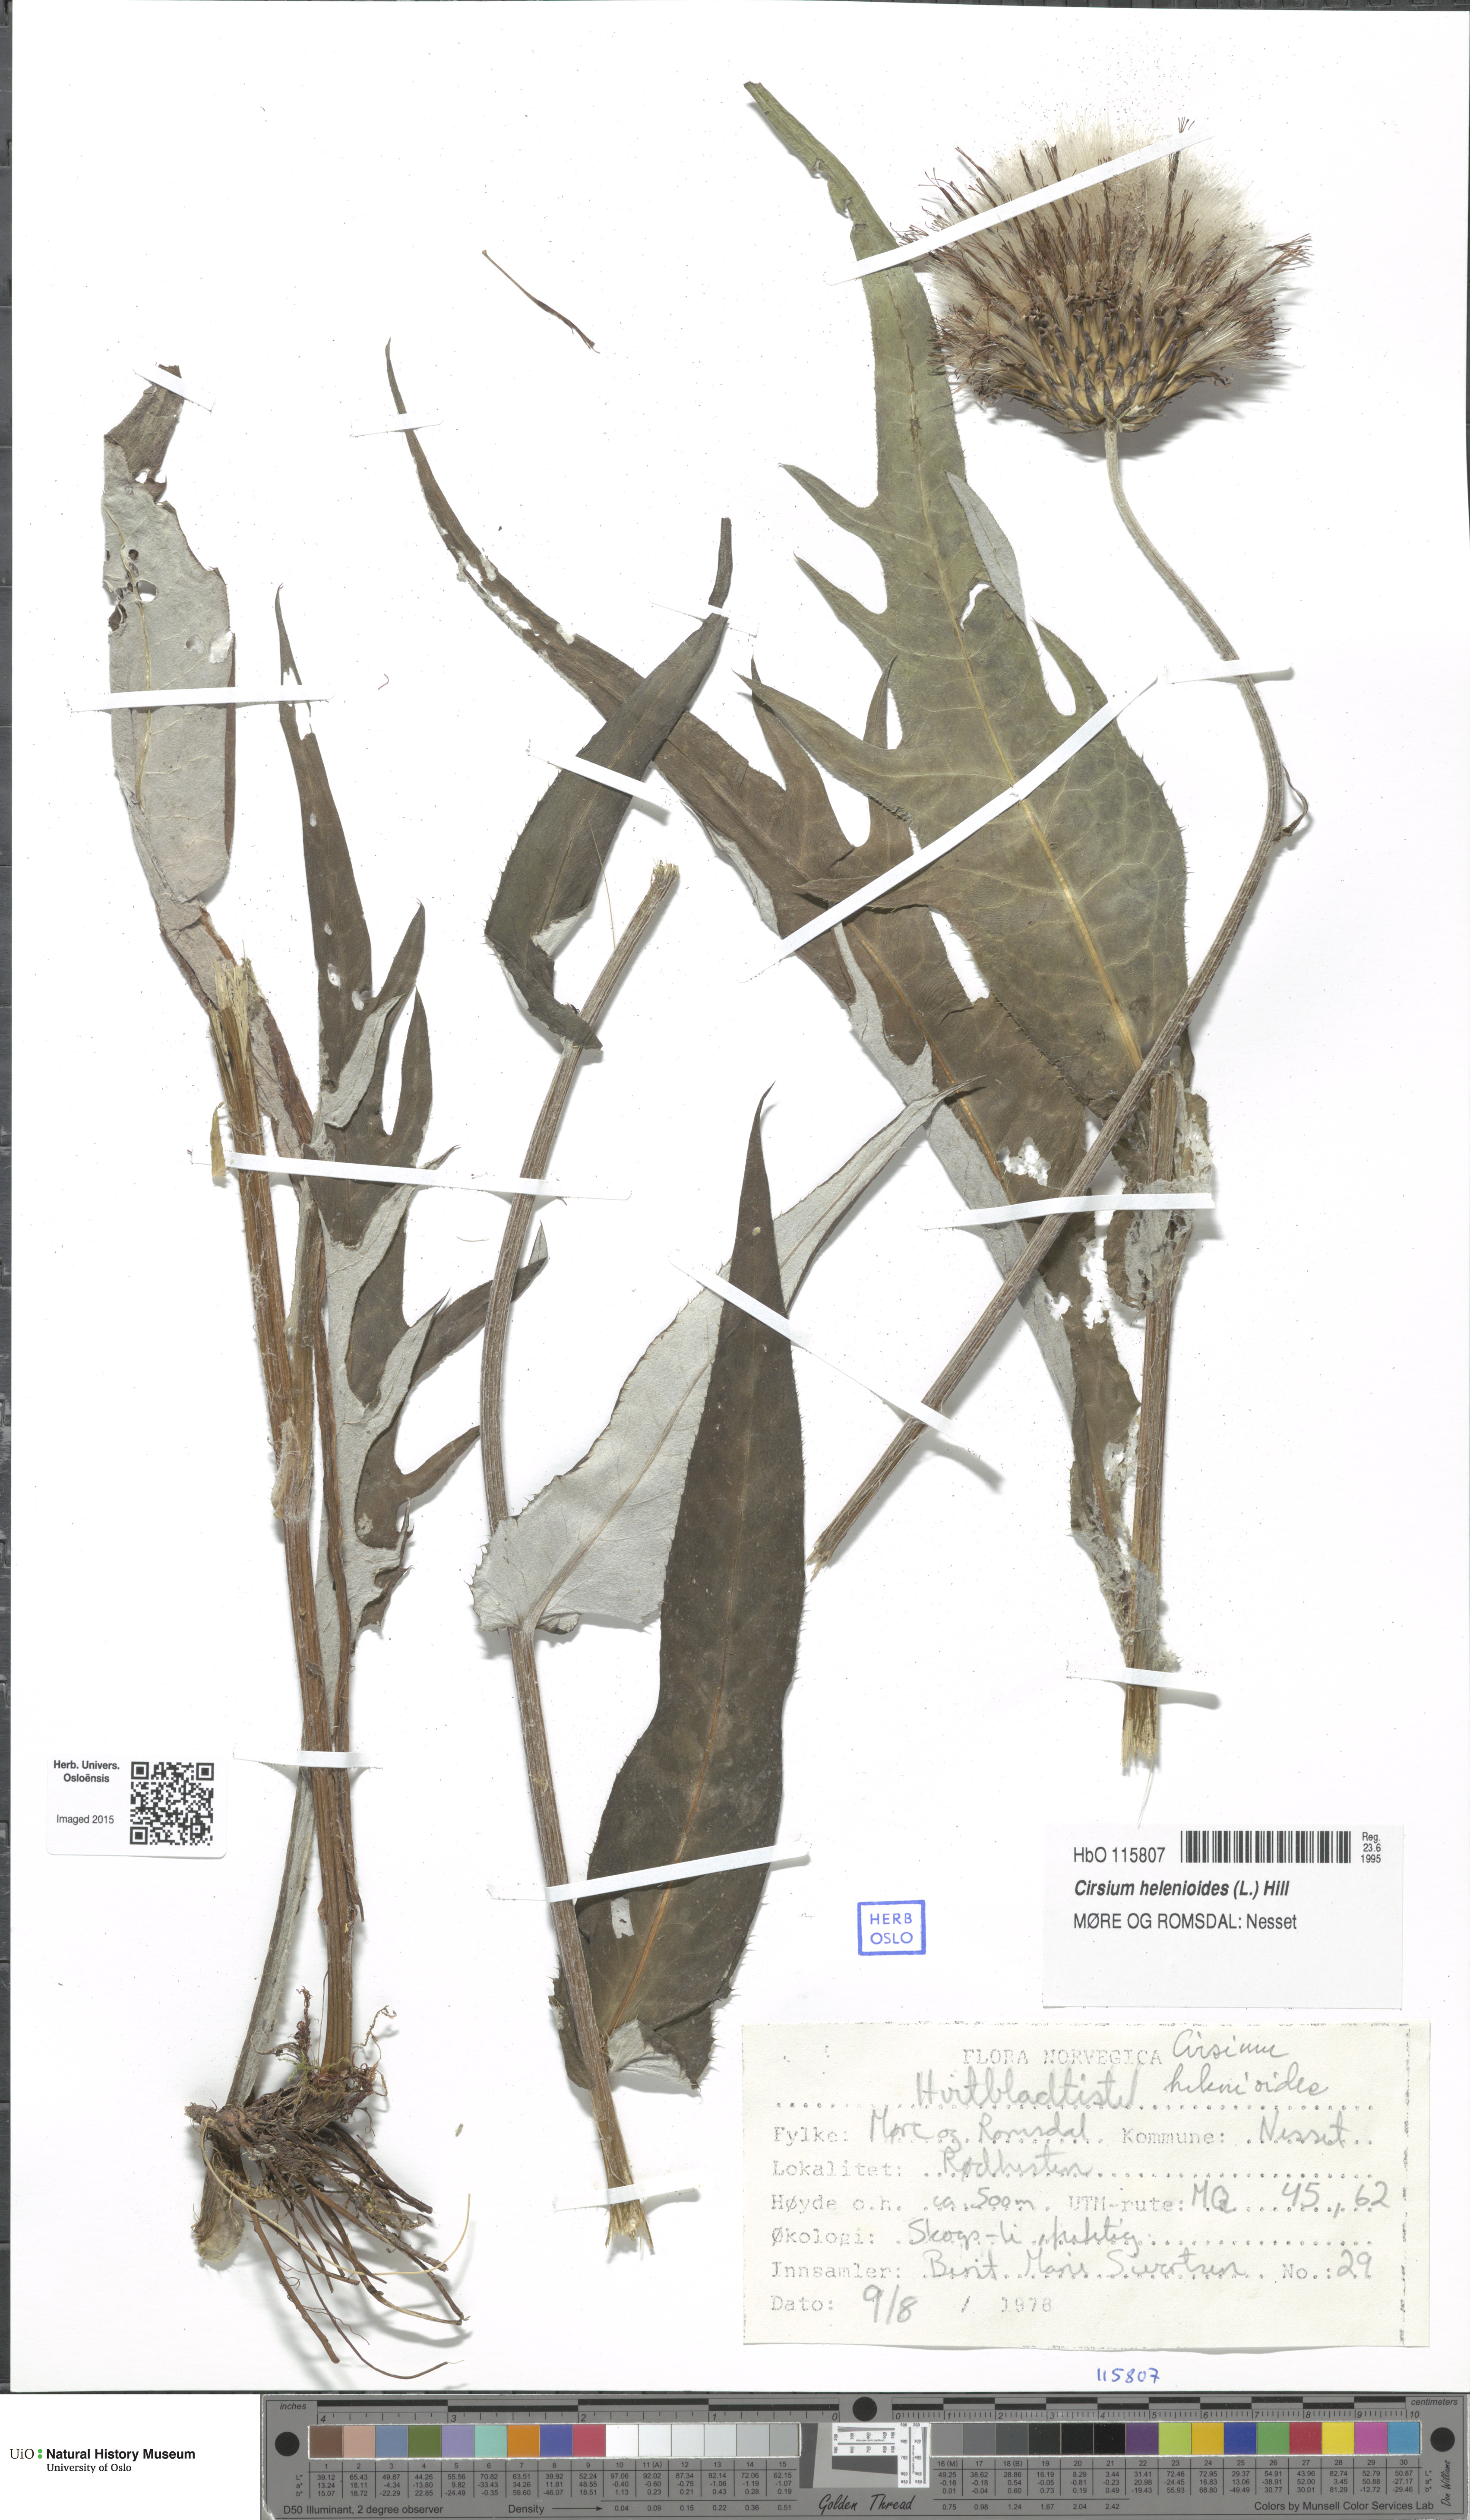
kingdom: Plantae
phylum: Tracheophyta
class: Magnoliopsida
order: Asterales
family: Asteraceae
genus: Cirsium
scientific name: Cirsium heterophyllum
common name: Melancholy thistle
